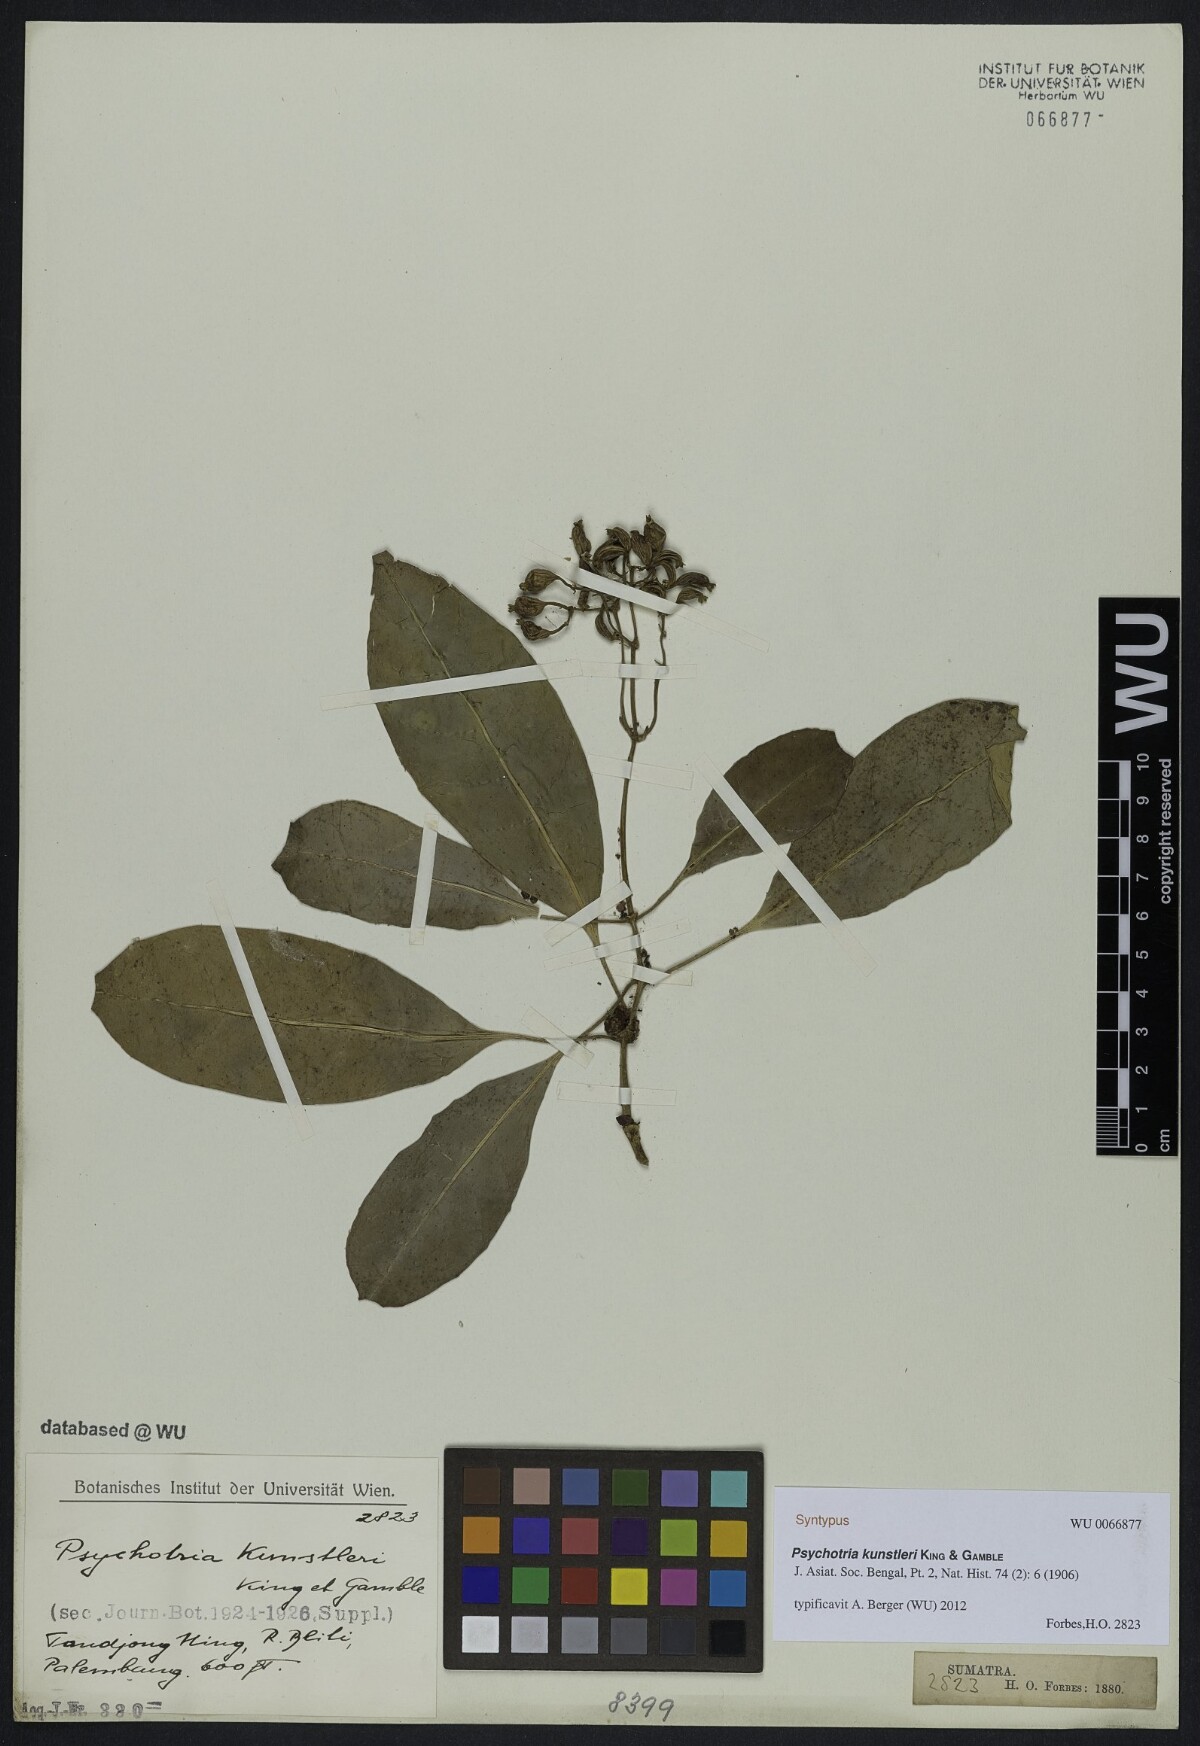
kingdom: Plantae
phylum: Tracheophyta
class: Magnoliopsida
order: Gentianales
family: Rubiaceae
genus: Psychotria
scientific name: Psychotria ridleyi
